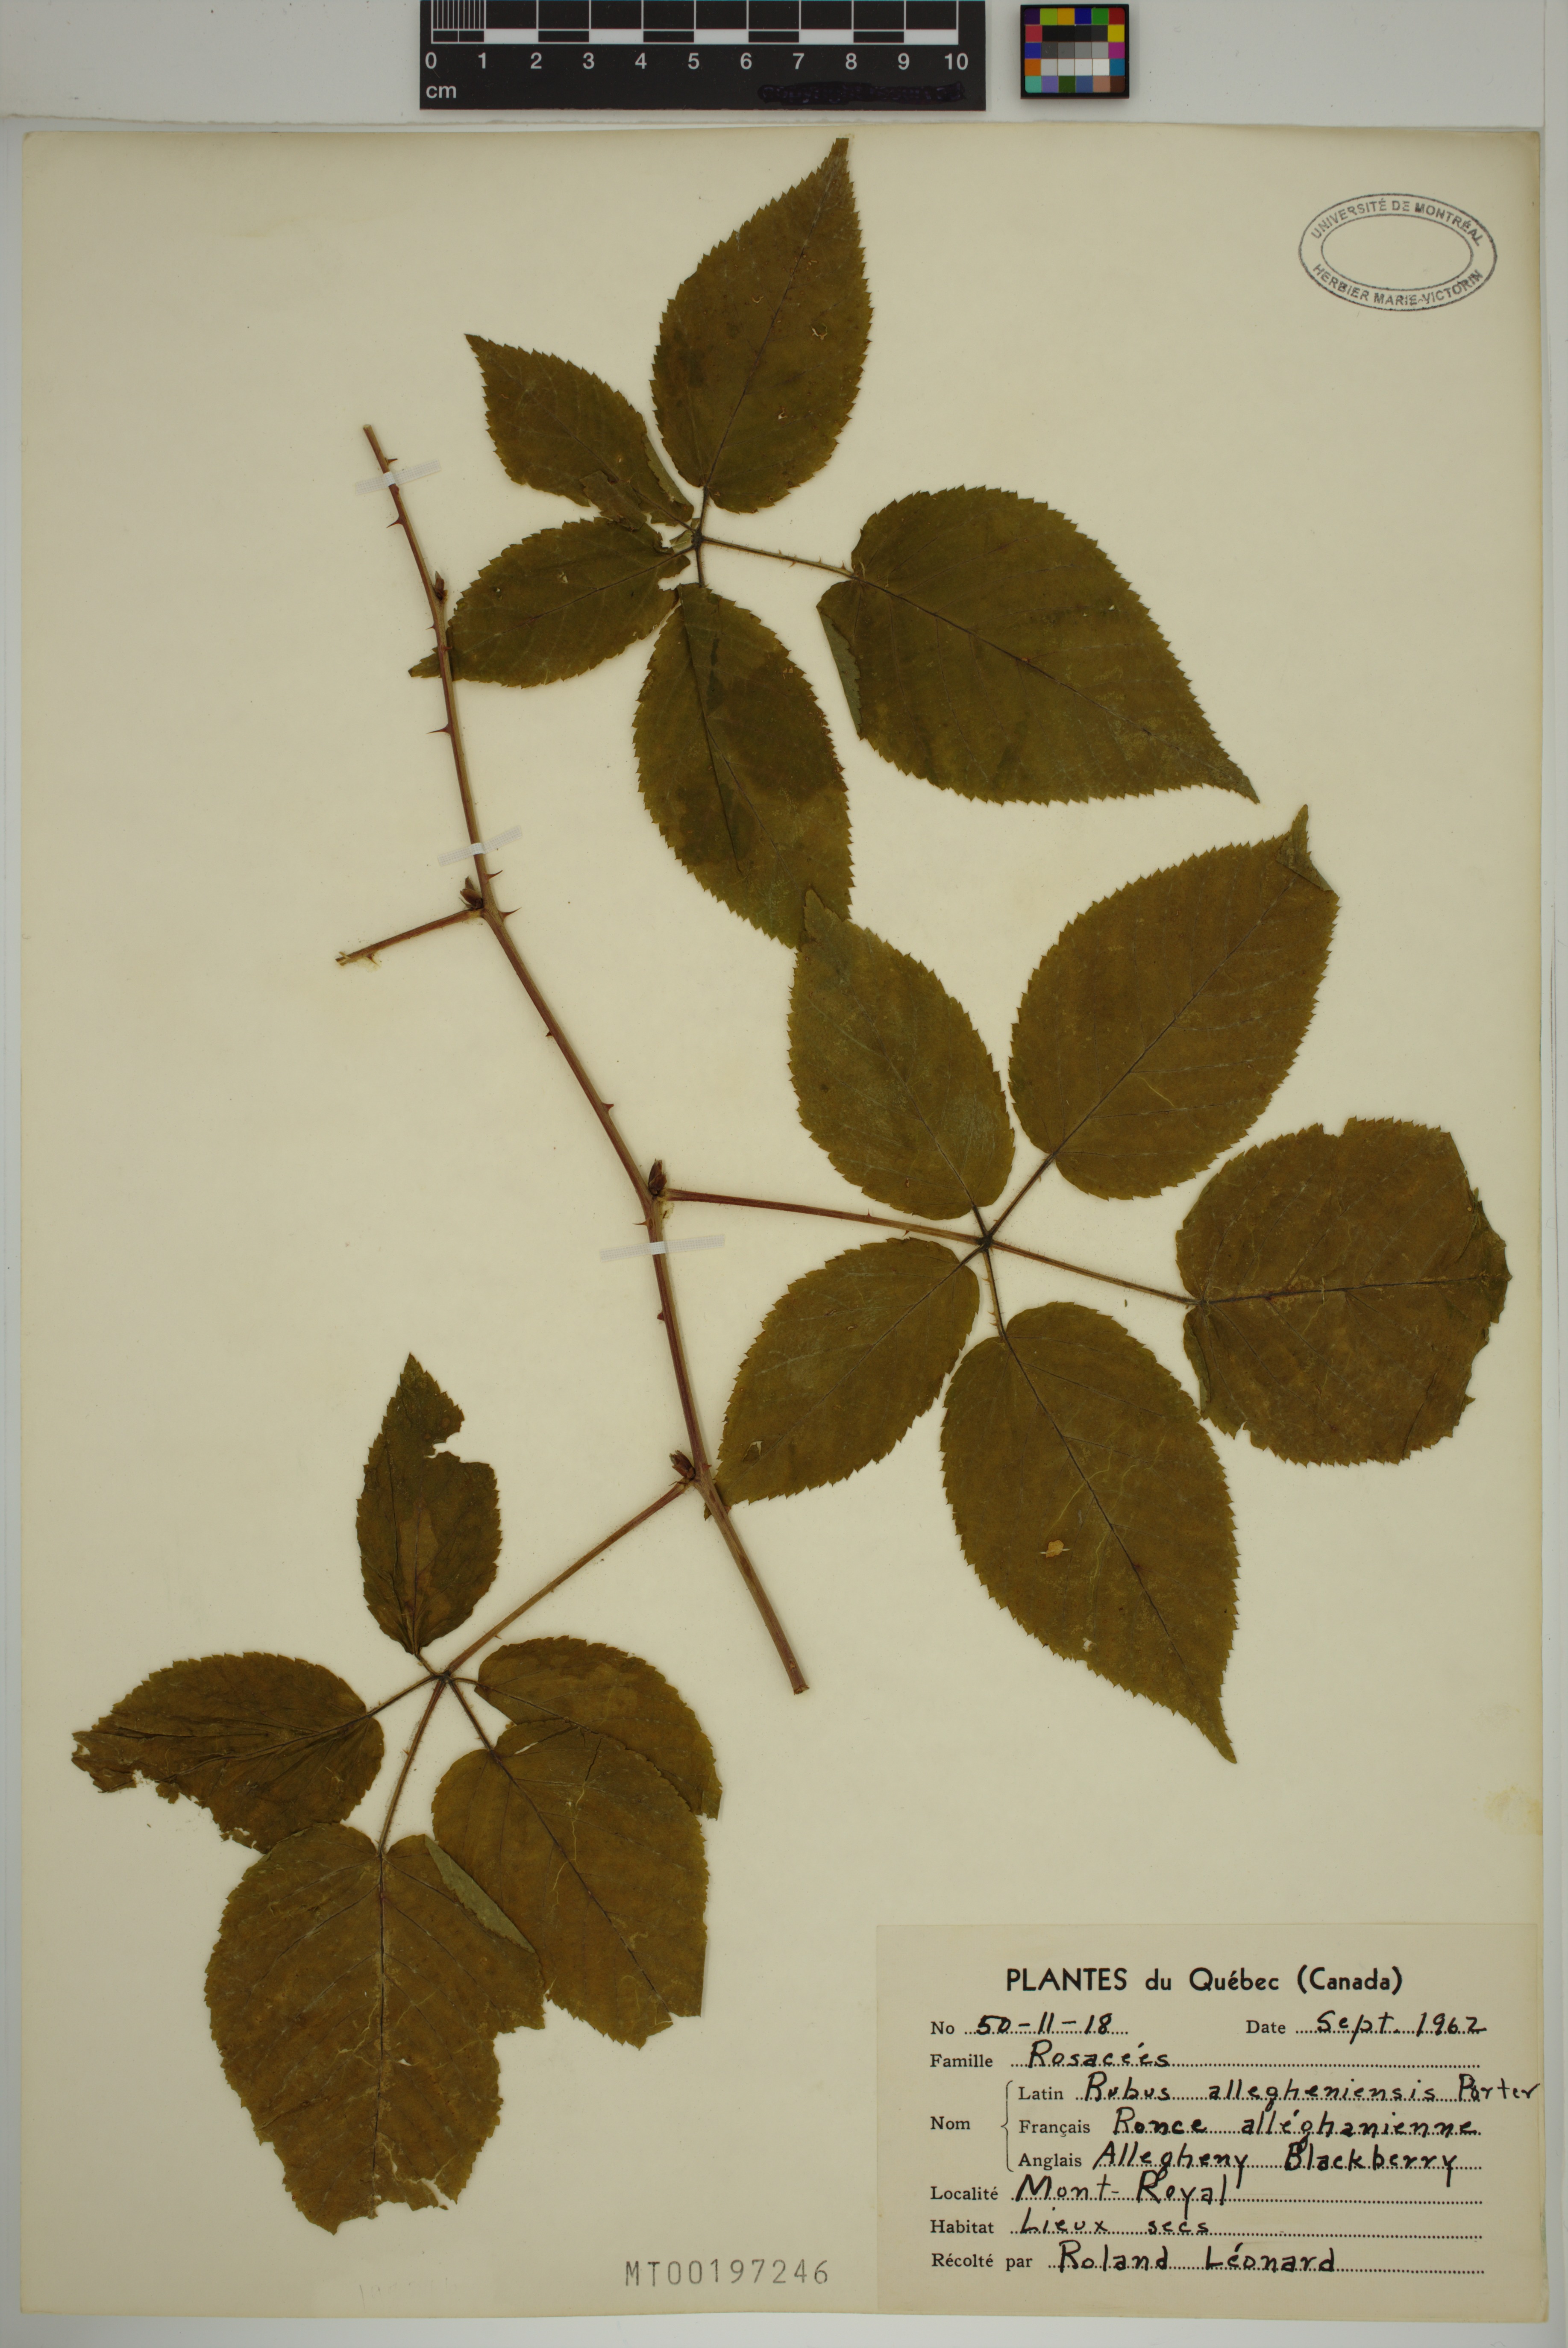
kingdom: Plantae
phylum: Tracheophyta
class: Magnoliopsida
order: Rosales
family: Rosaceae
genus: Rubus
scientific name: Rubus allegheniensis
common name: Allegheny blackberry
